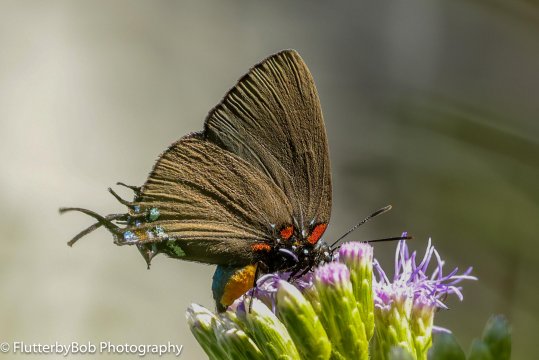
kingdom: Animalia
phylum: Arthropoda
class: Insecta
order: Lepidoptera
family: Lycaenidae
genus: Atlides
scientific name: Atlides halesus
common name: Great Purple Hairstreak
